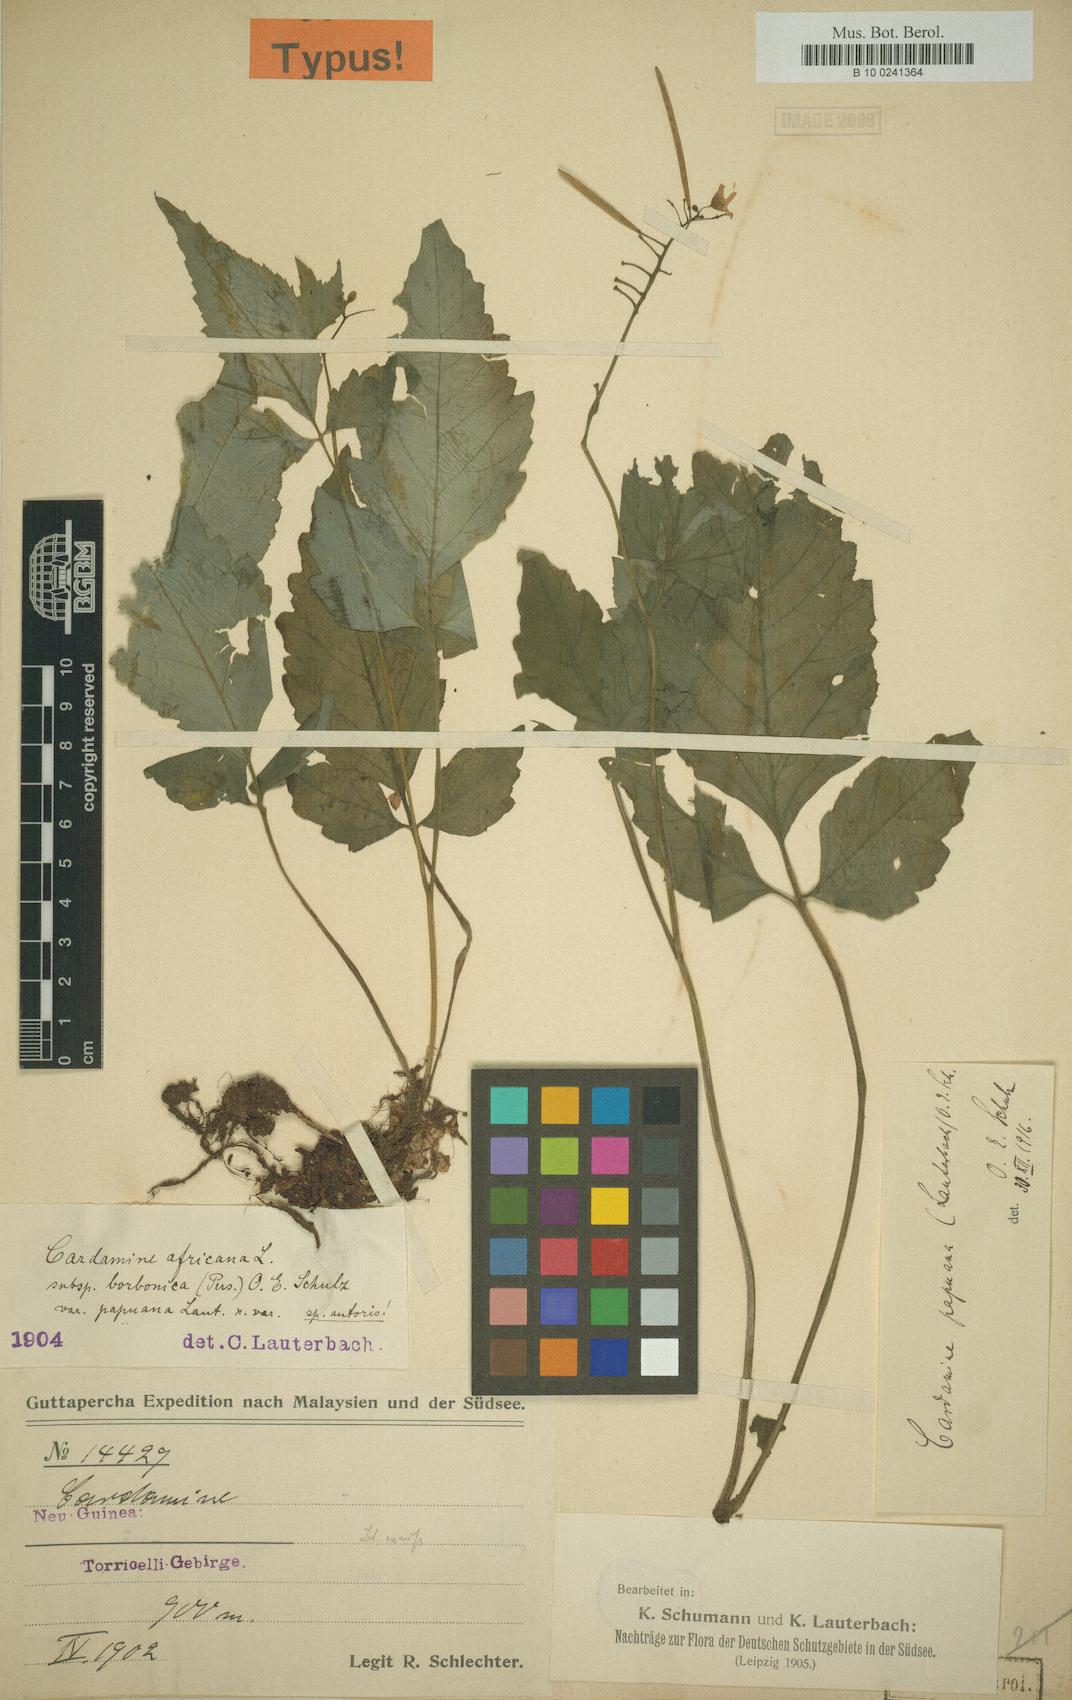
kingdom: Plantae
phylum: Tracheophyta
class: Magnoliopsida
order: Brassicales
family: Brassicaceae
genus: Cardamine
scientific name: Cardamine papuana
